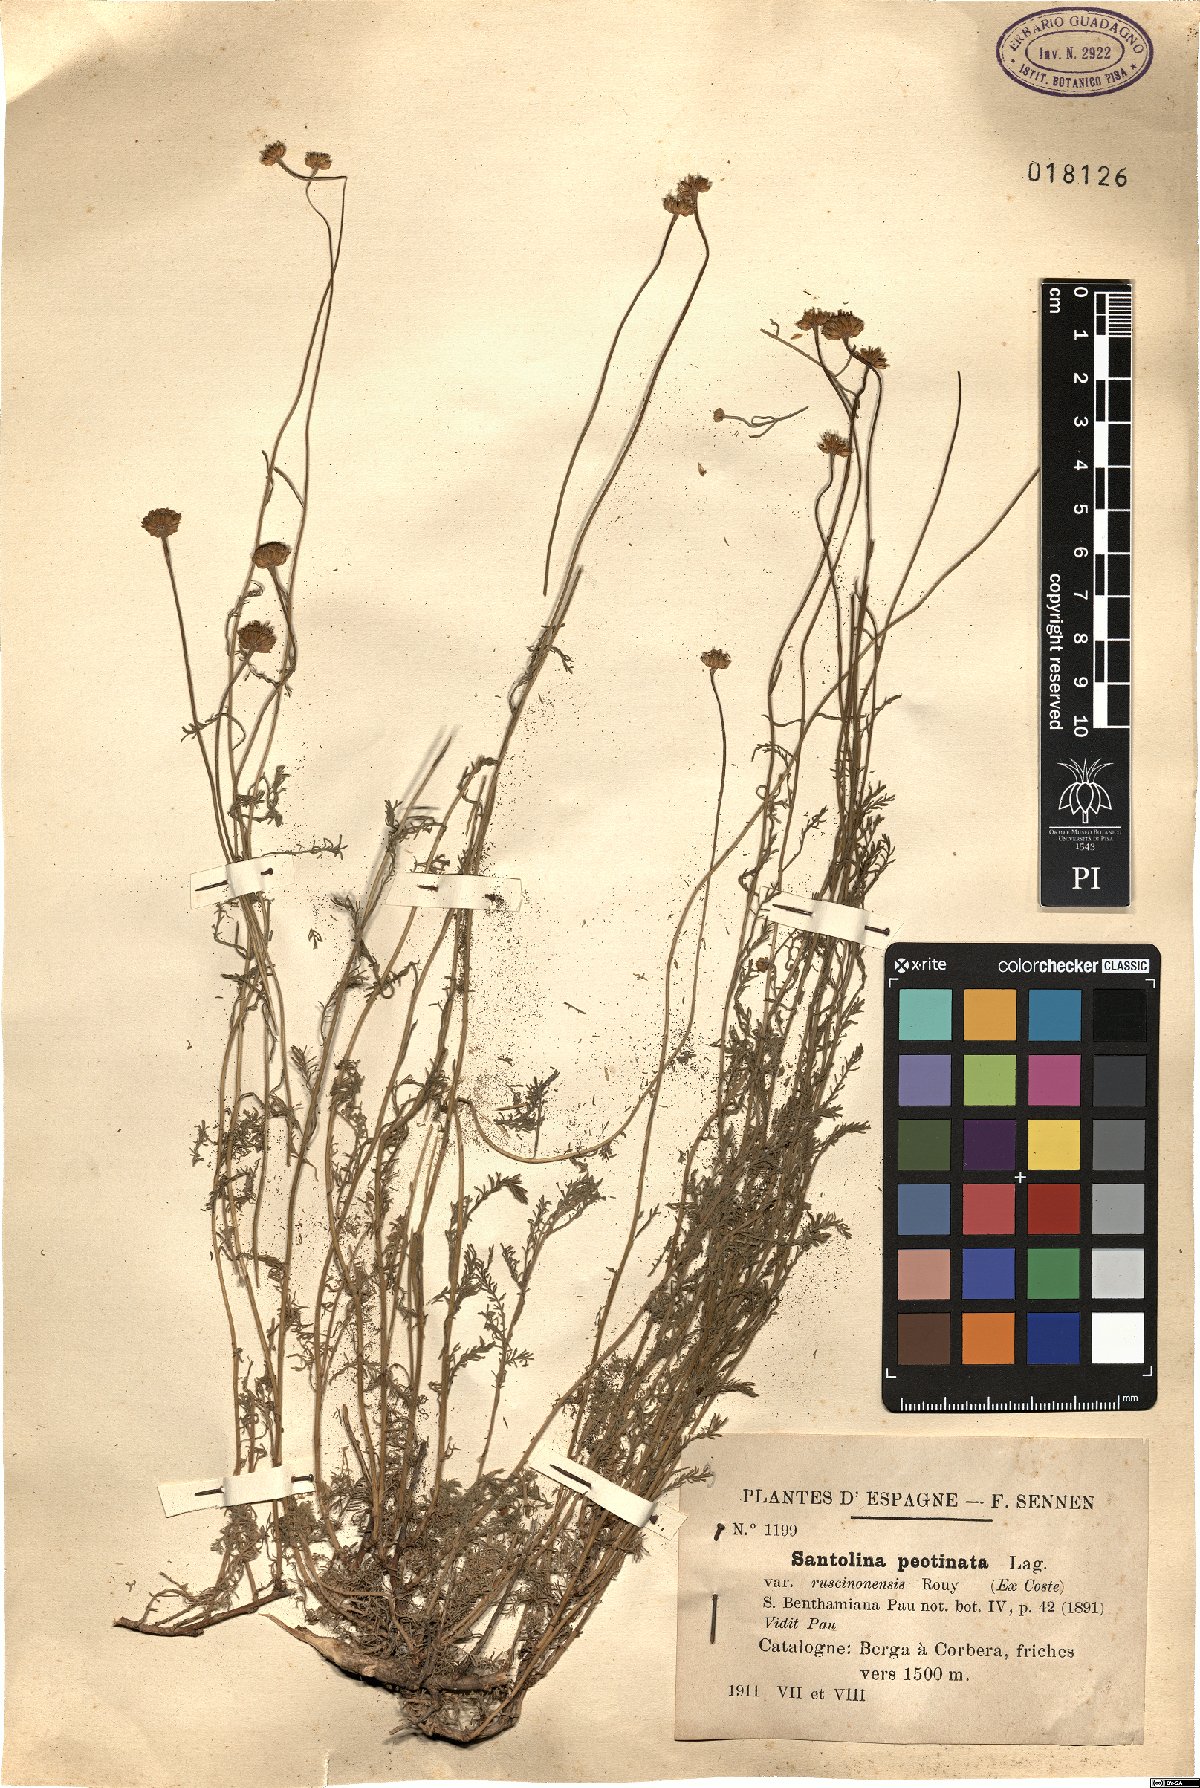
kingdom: Plantae
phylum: Tracheophyta
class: Magnoliopsida
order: Asterales
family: Asteraceae
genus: Santolina
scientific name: Santolina pectinata
